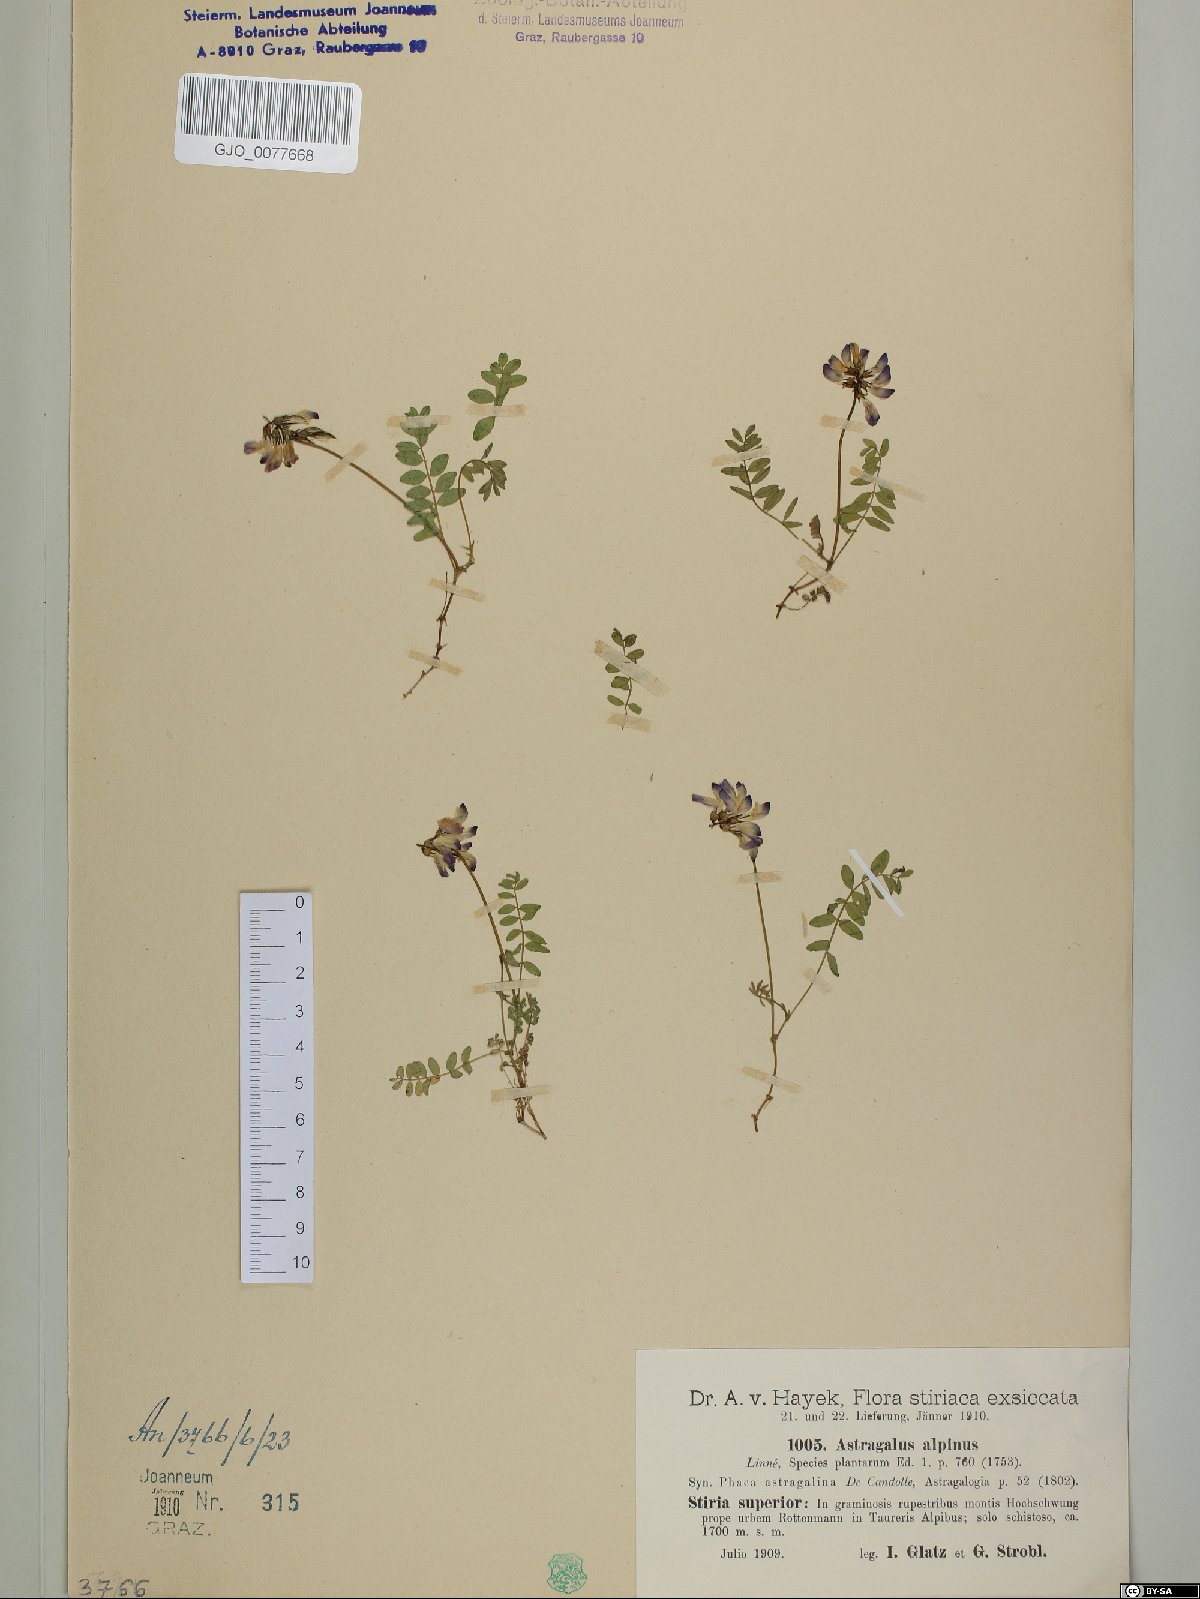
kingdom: Plantae
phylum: Tracheophyta
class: Magnoliopsida
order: Fabales
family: Fabaceae
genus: Astragalus
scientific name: Astragalus alpinus
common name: Alpine milk-vetch
